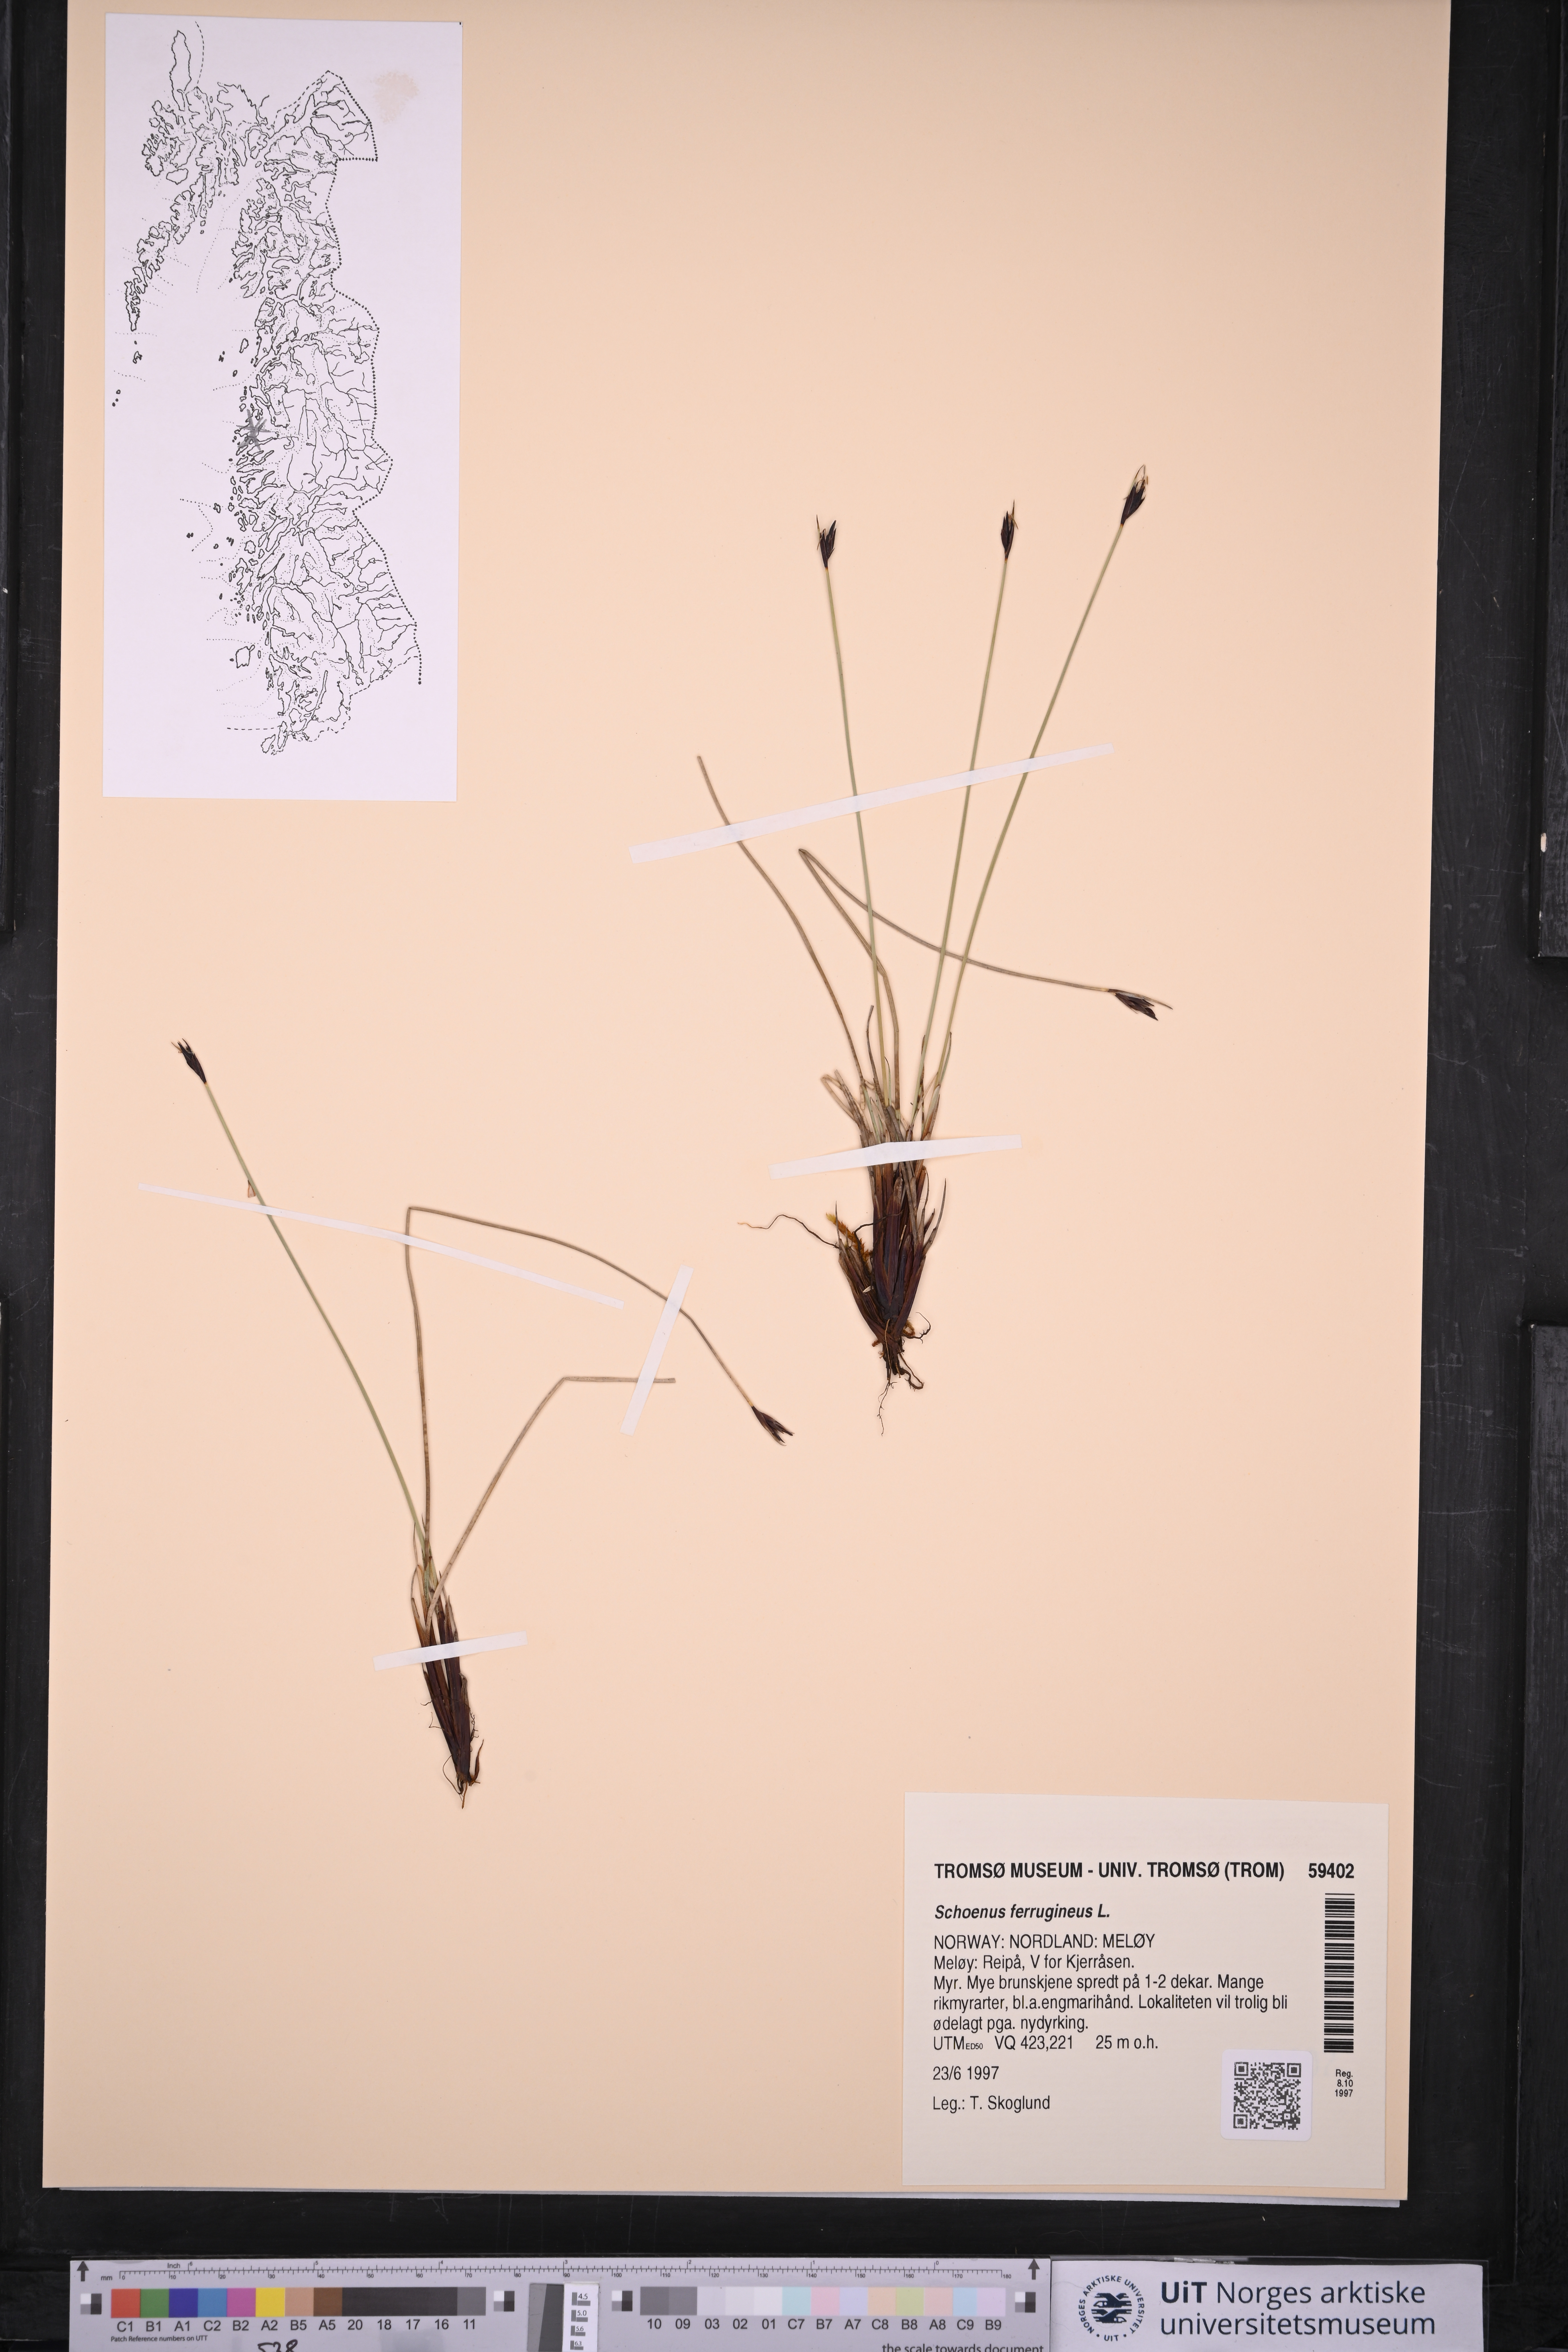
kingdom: Plantae
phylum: Tracheophyta
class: Liliopsida
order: Poales
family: Cyperaceae
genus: Schoenus
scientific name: Schoenus ferrugineus
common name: Brown bog-rush
